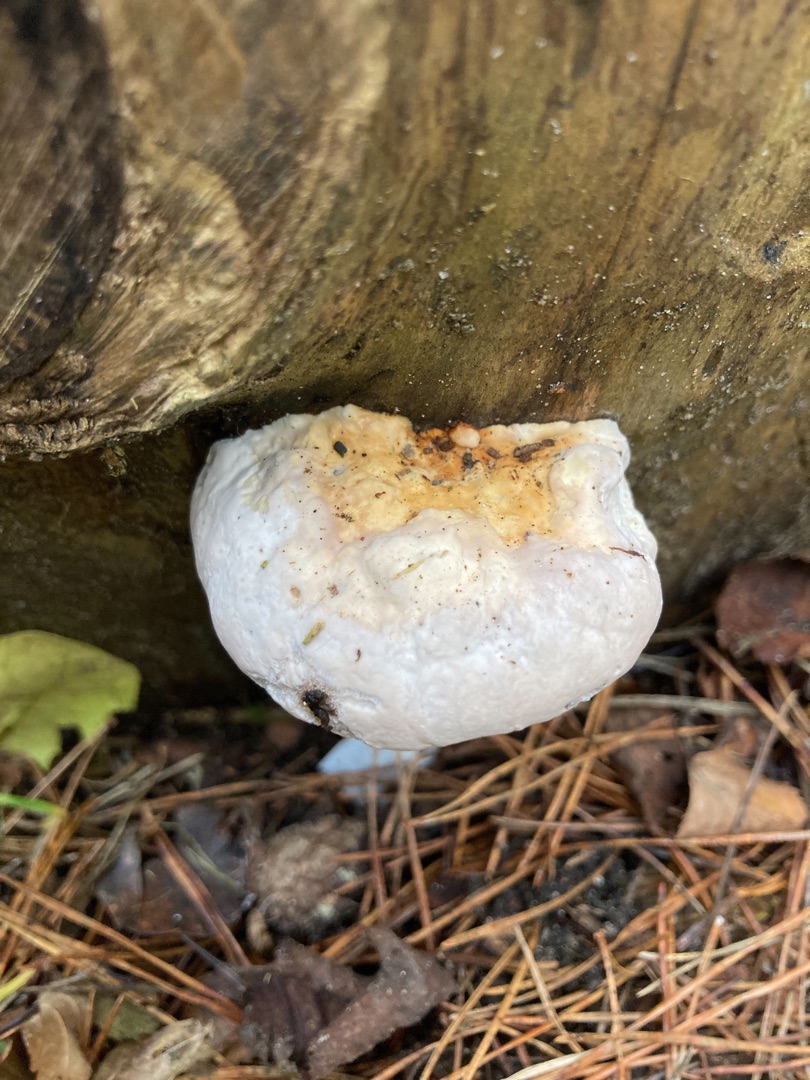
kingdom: Fungi
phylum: Basidiomycota
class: Agaricomycetes
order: Polyporales
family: Fomitopsidaceae
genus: Fomitopsis
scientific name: Fomitopsis pinicola
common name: Randbæltet hovporesvamp
